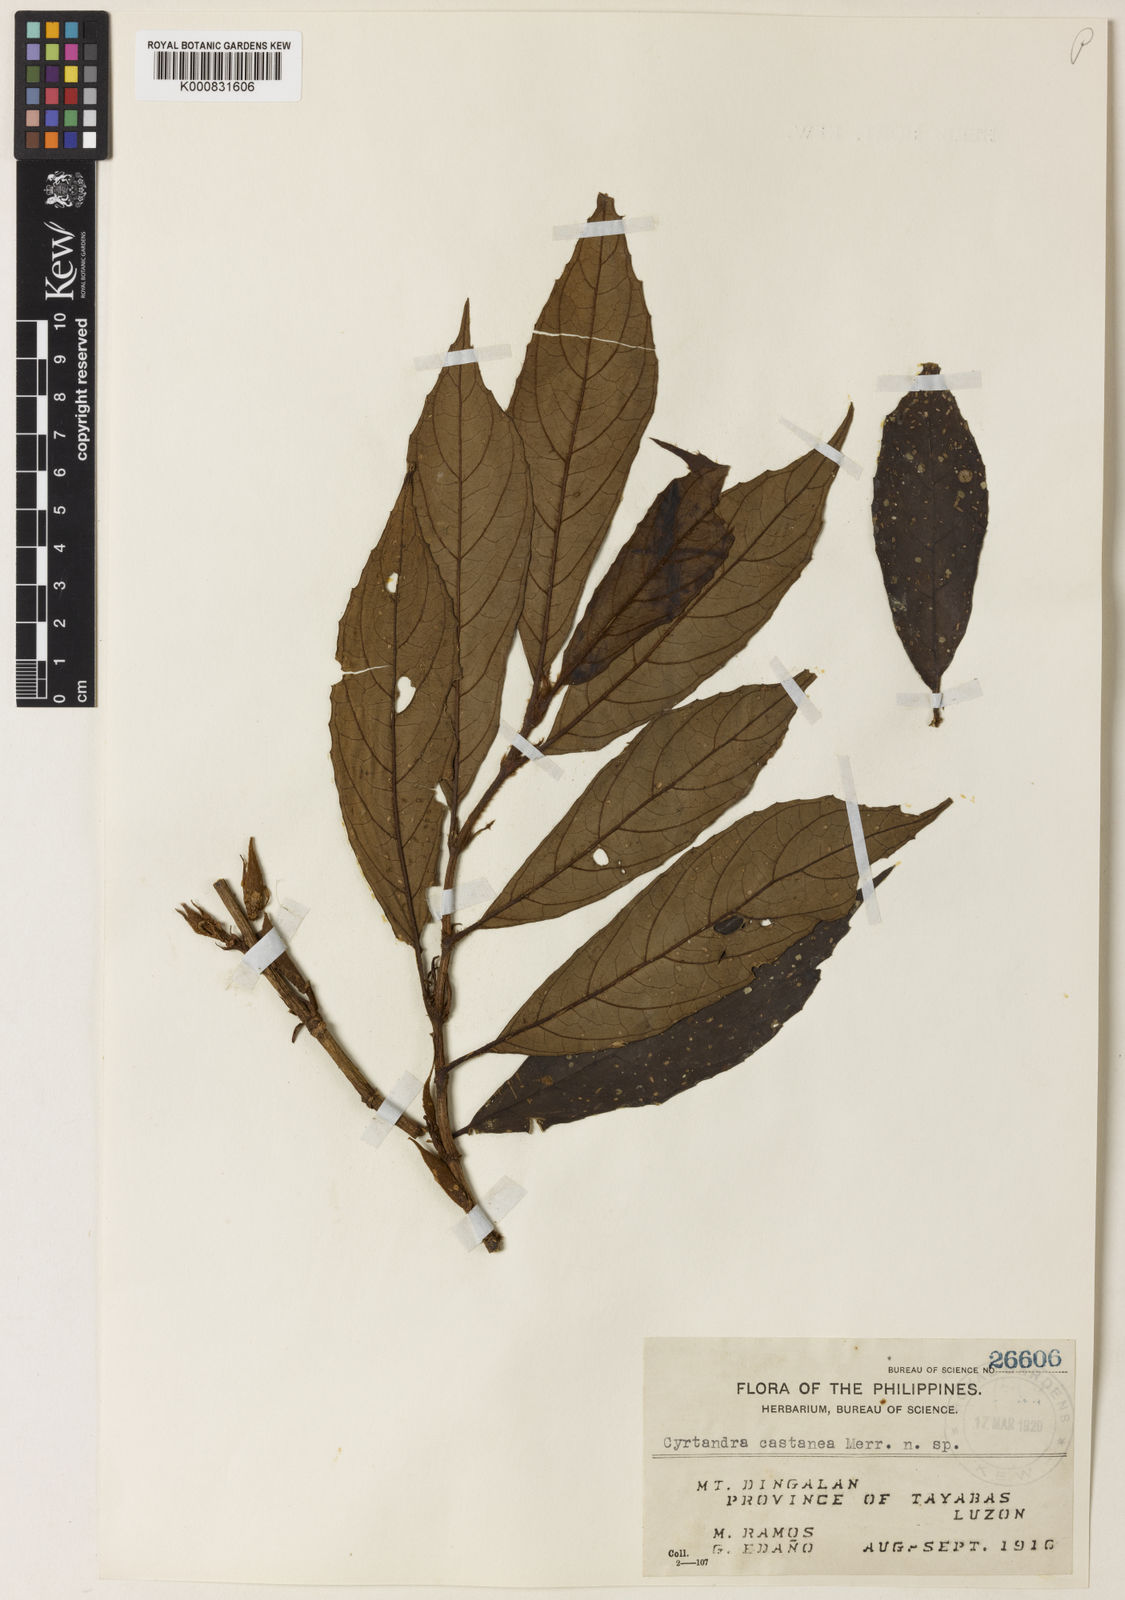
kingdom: Plantae
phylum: Tracheophyta
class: Magnoliopsida
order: Lamiales
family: Gesneriaceae
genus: Cyrtandra
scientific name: Cyrtandra
